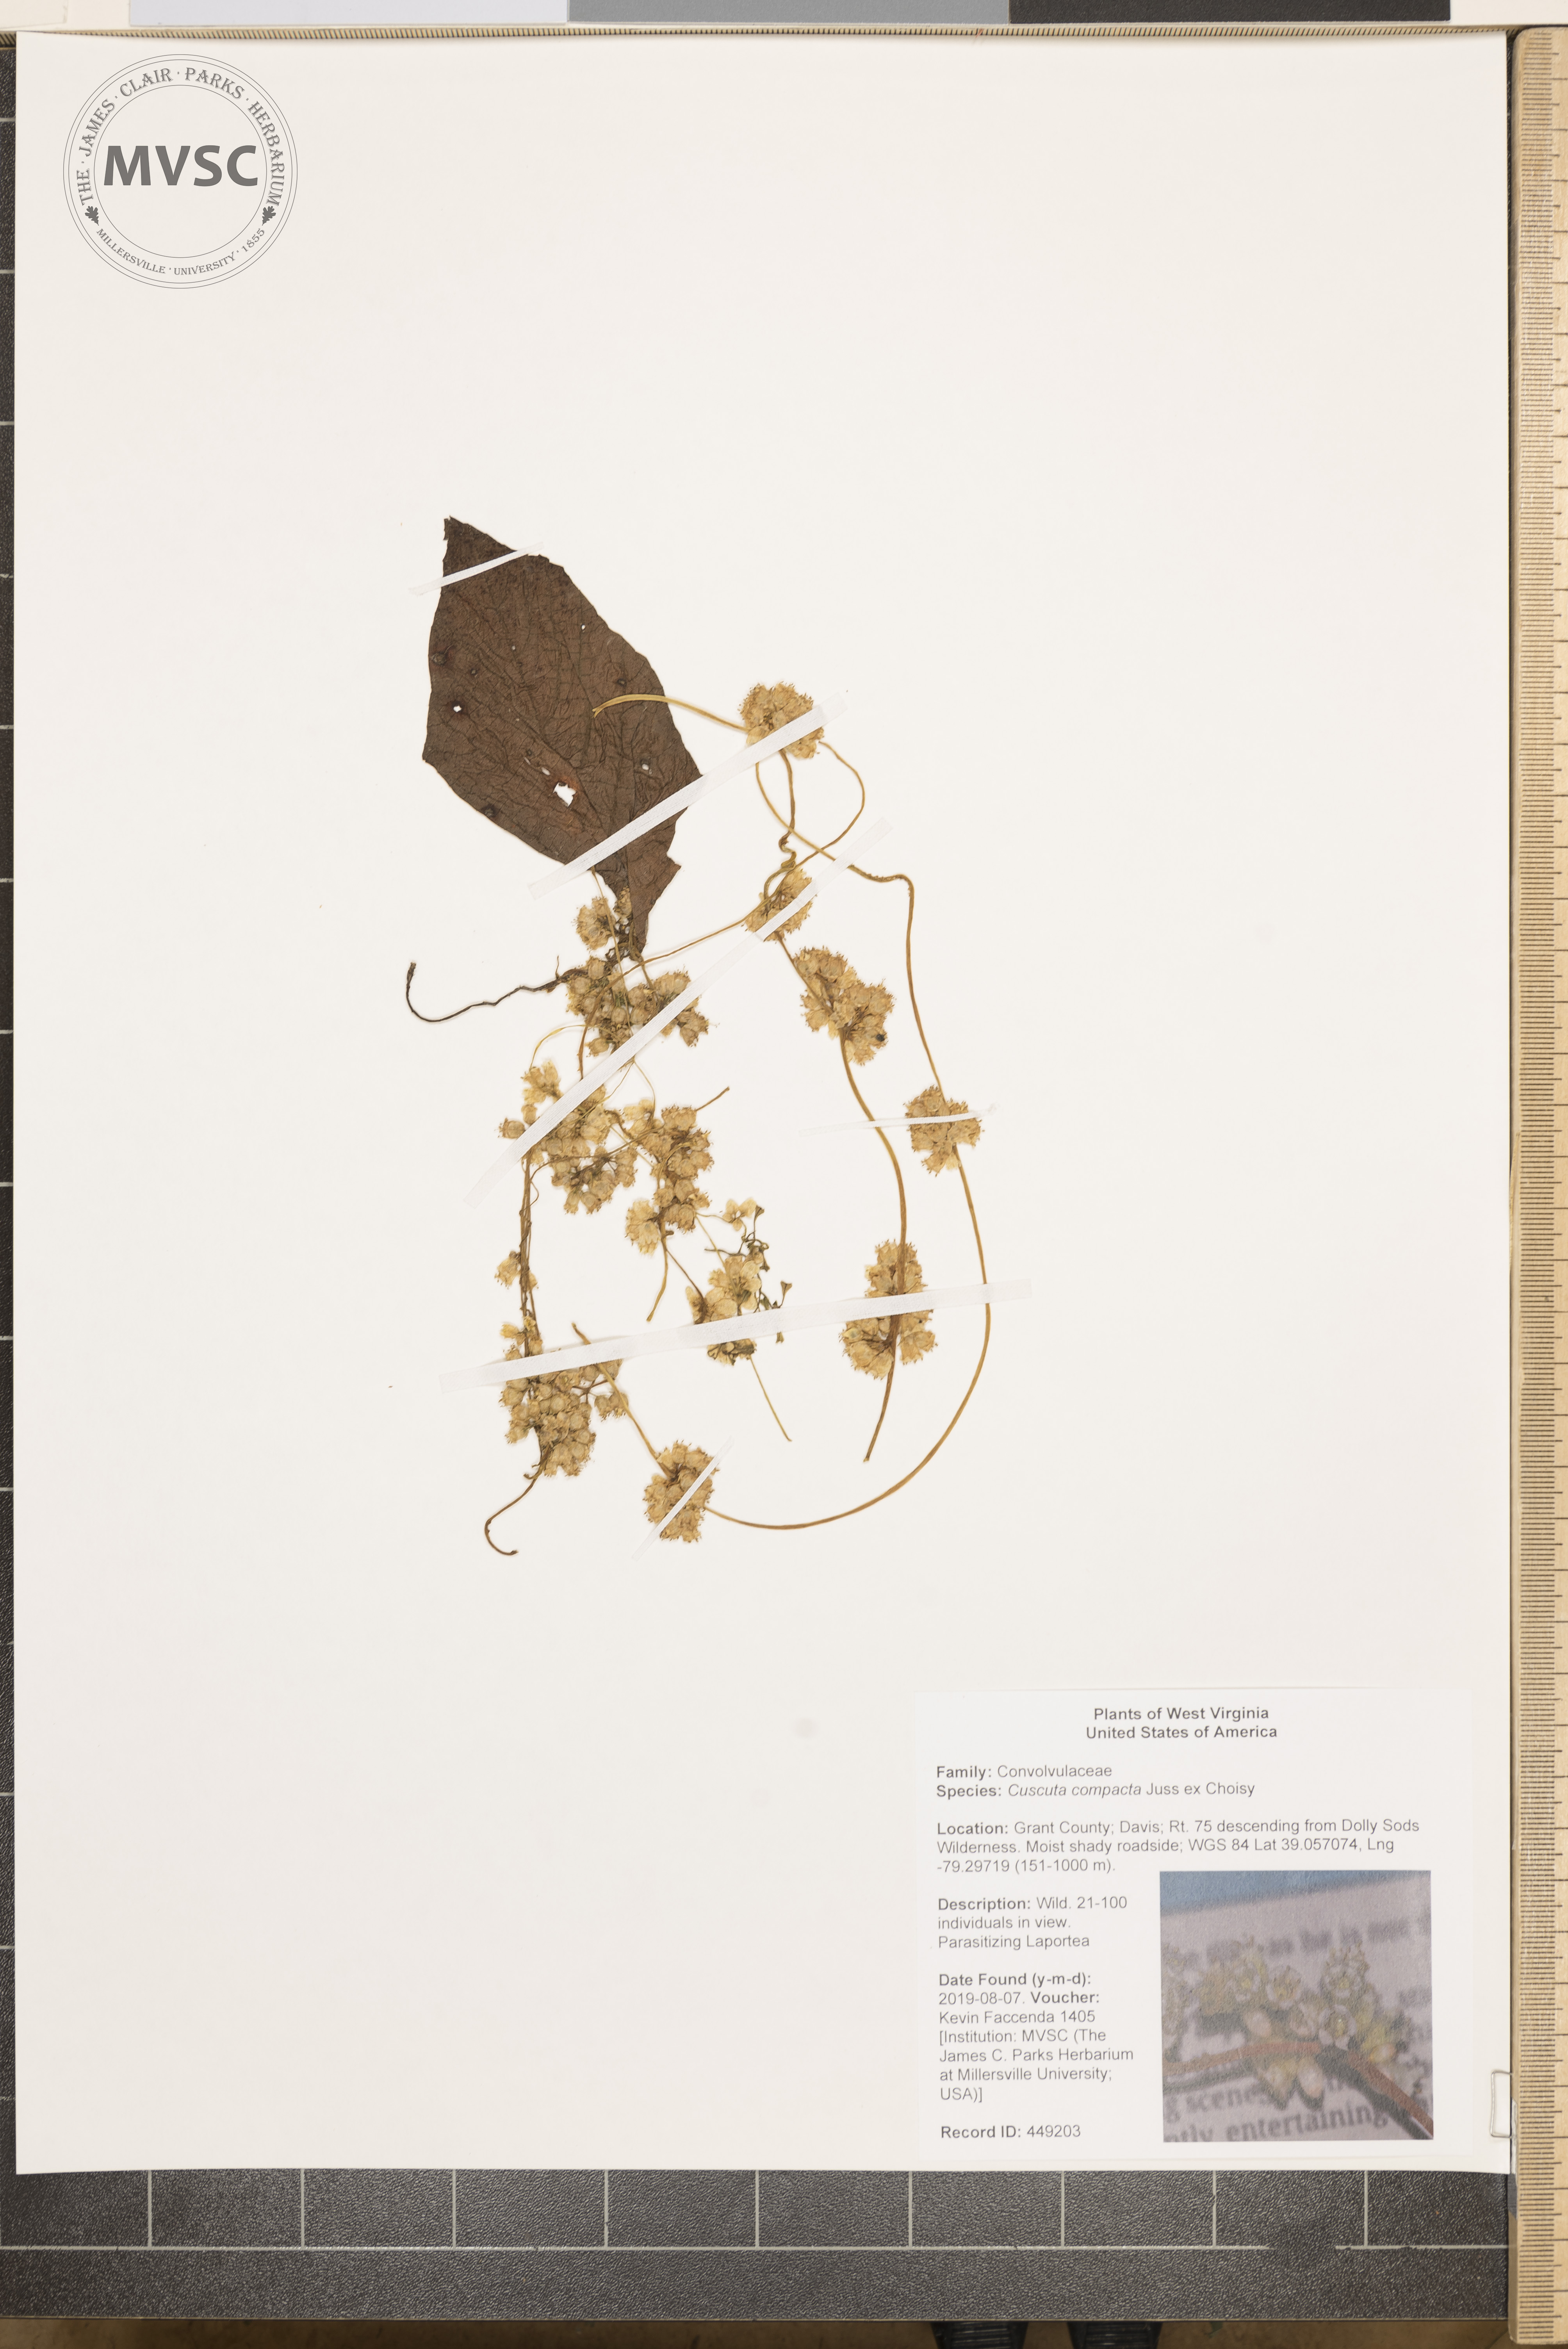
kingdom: Plantae
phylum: Tracheophyta
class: Magnoliopsida
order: Solanales
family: Convolvulaceae
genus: Cuscuta
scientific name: Cuscuta compacta
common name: Compact dodder
